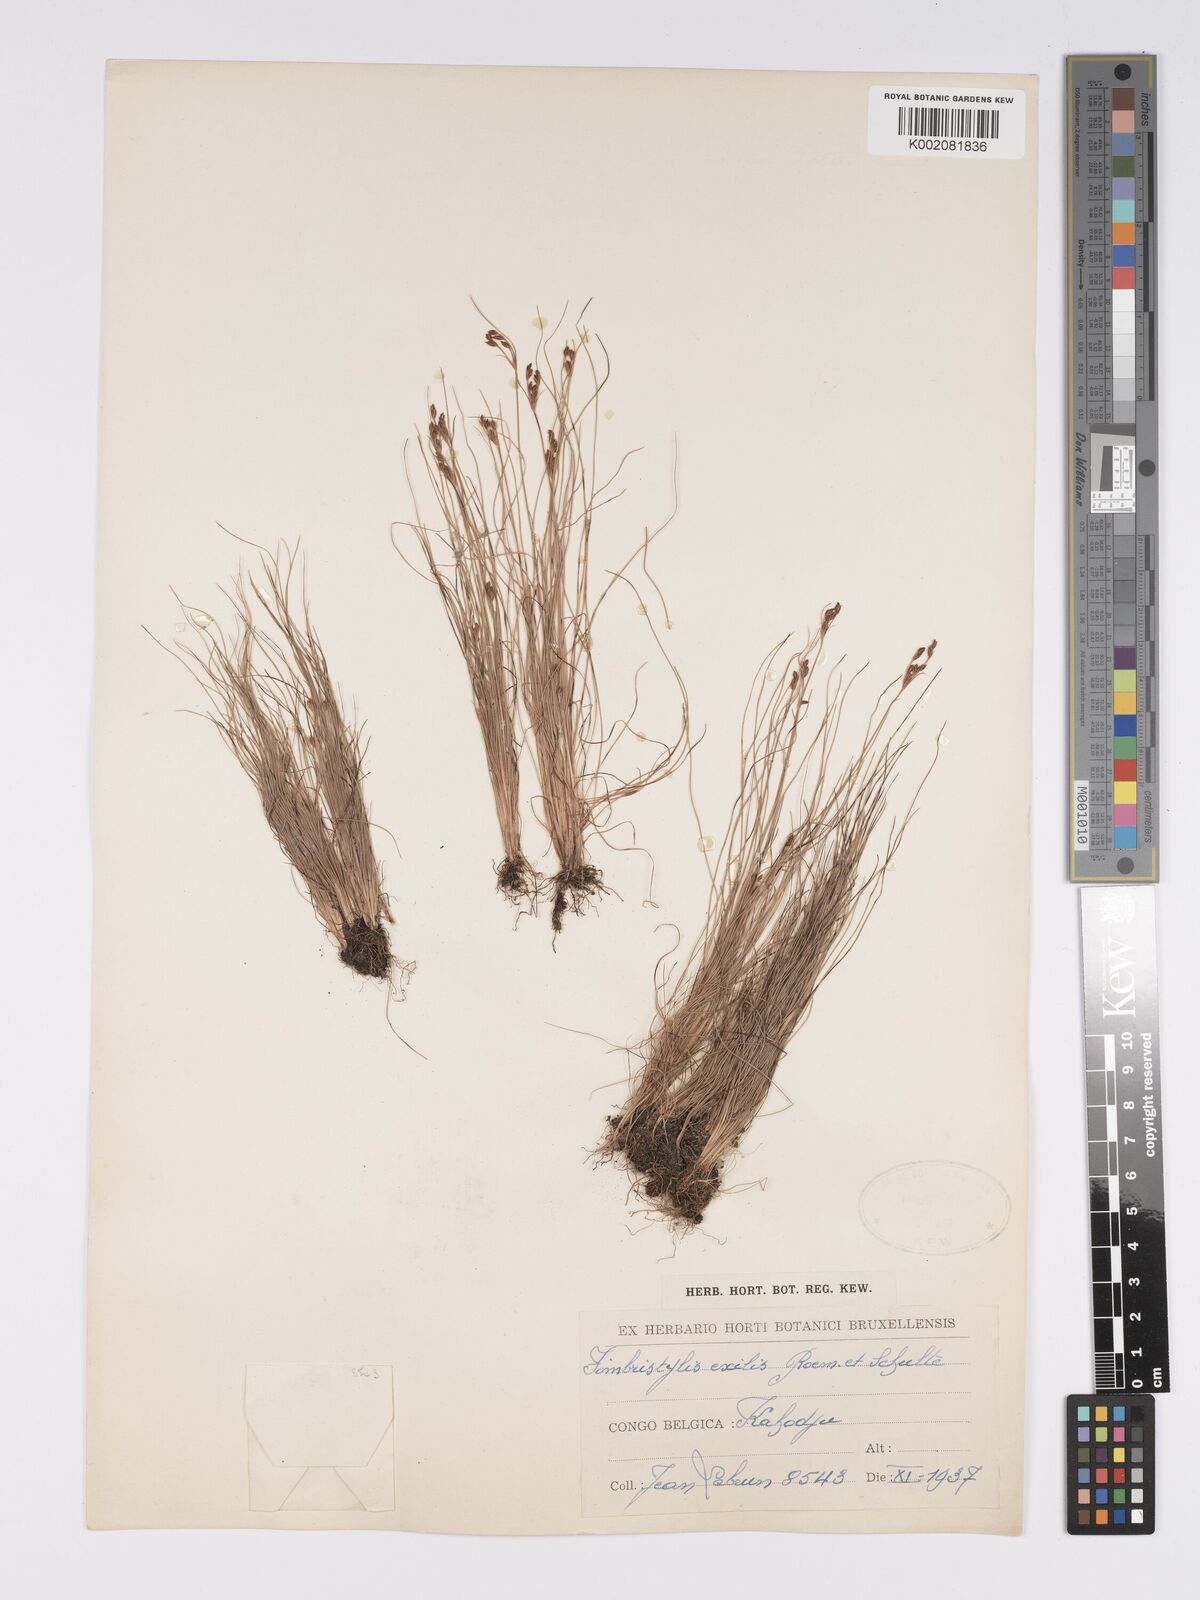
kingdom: Plantae
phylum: Tracheophyta
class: Liliopsida
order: Poales
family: Cyperaceae
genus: Bulbostylis
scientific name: Bulbostylis hispidula
